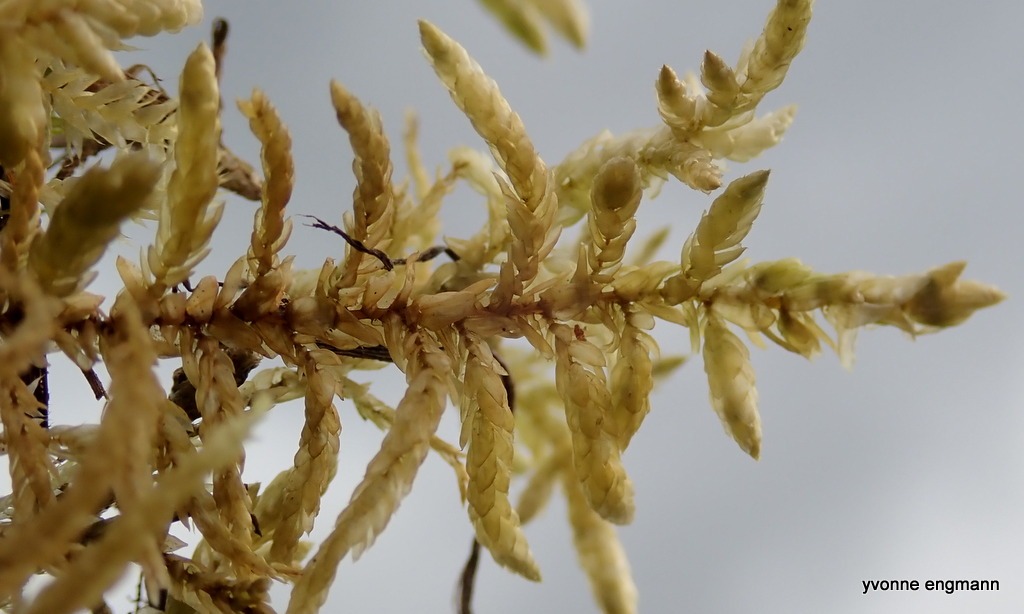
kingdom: Plantae
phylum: Bryophyta
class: Bryopsida
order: Hypnales
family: Brachytheciaceae
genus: Pseudoscleropodium
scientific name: Pseudoscleropodium purum
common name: Hulbladet fedtmos
